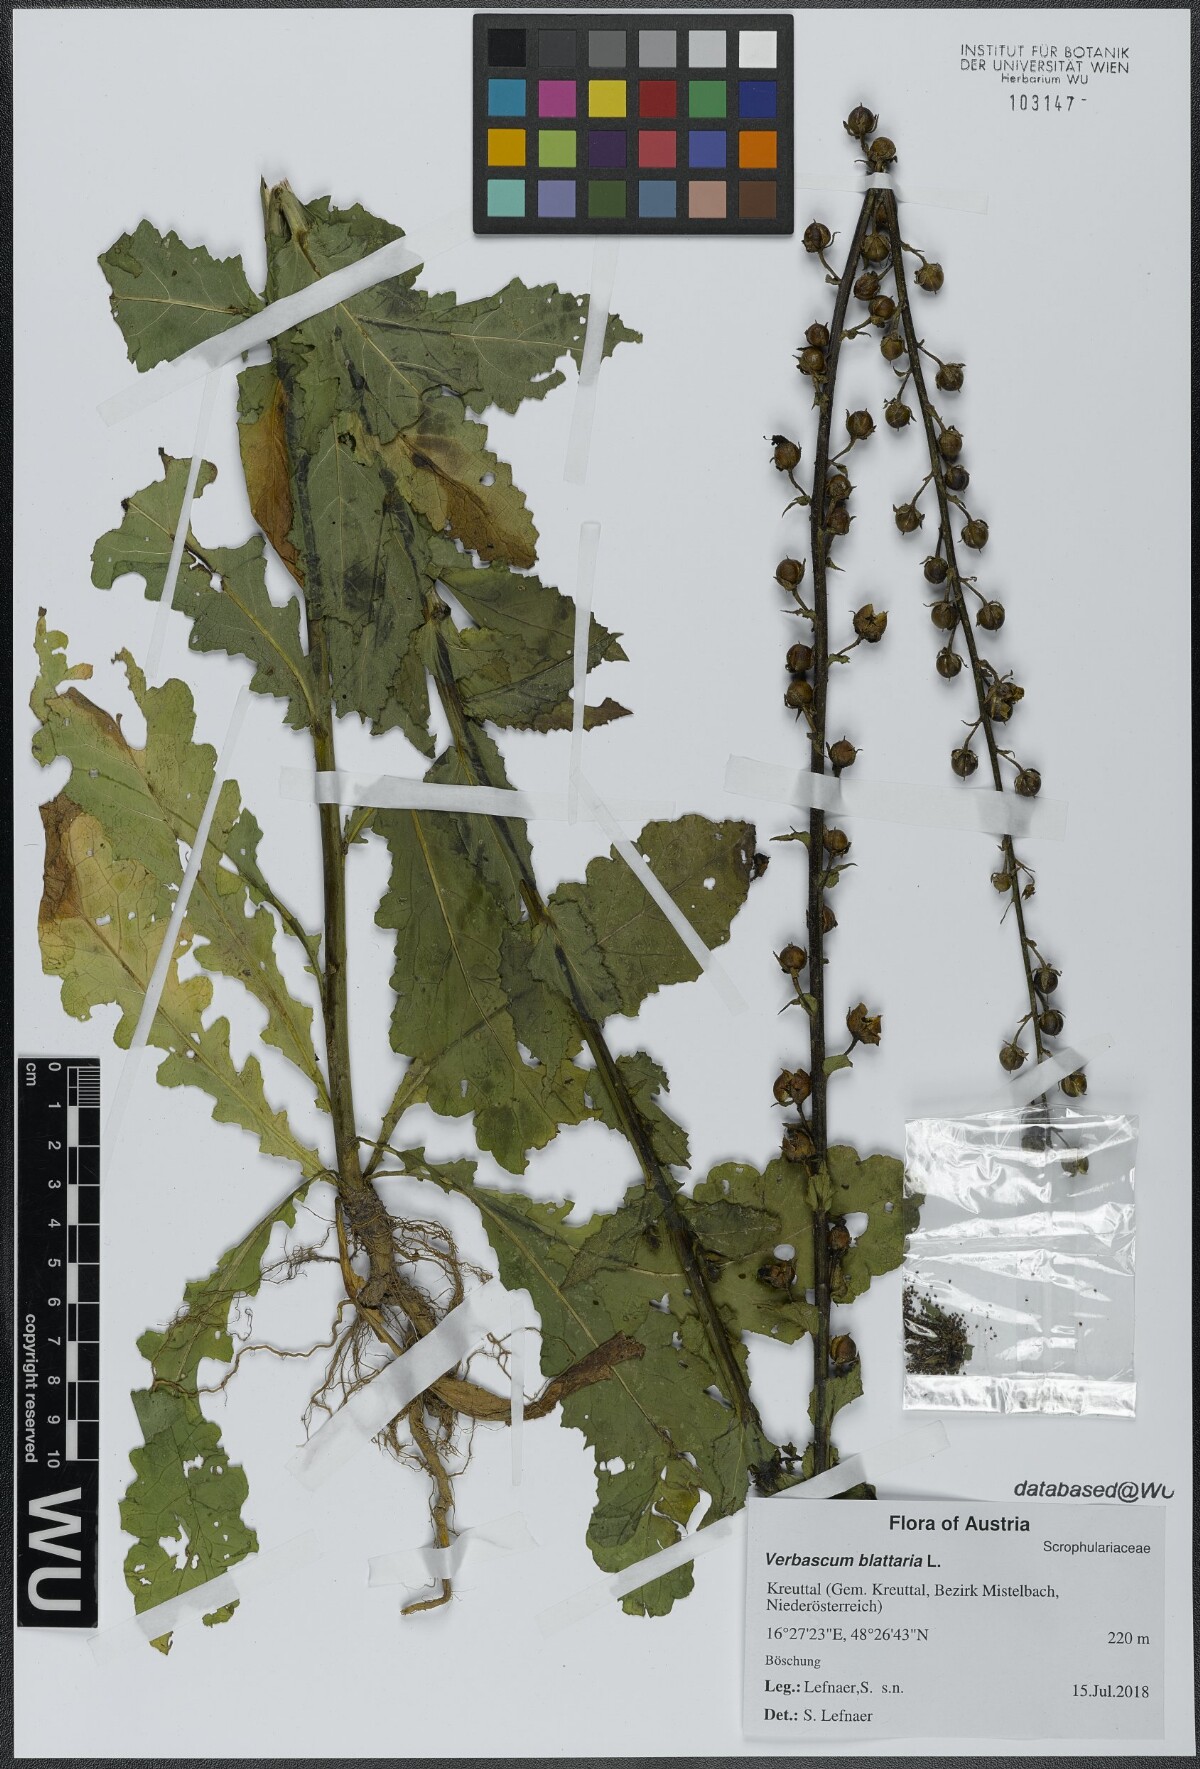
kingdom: Plantae
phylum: Tracheophyta
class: Magnoliopsida
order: Lamiales
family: Scrophulariaceae
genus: Verbascum
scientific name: Verbascum blattaria
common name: Moth mullein
